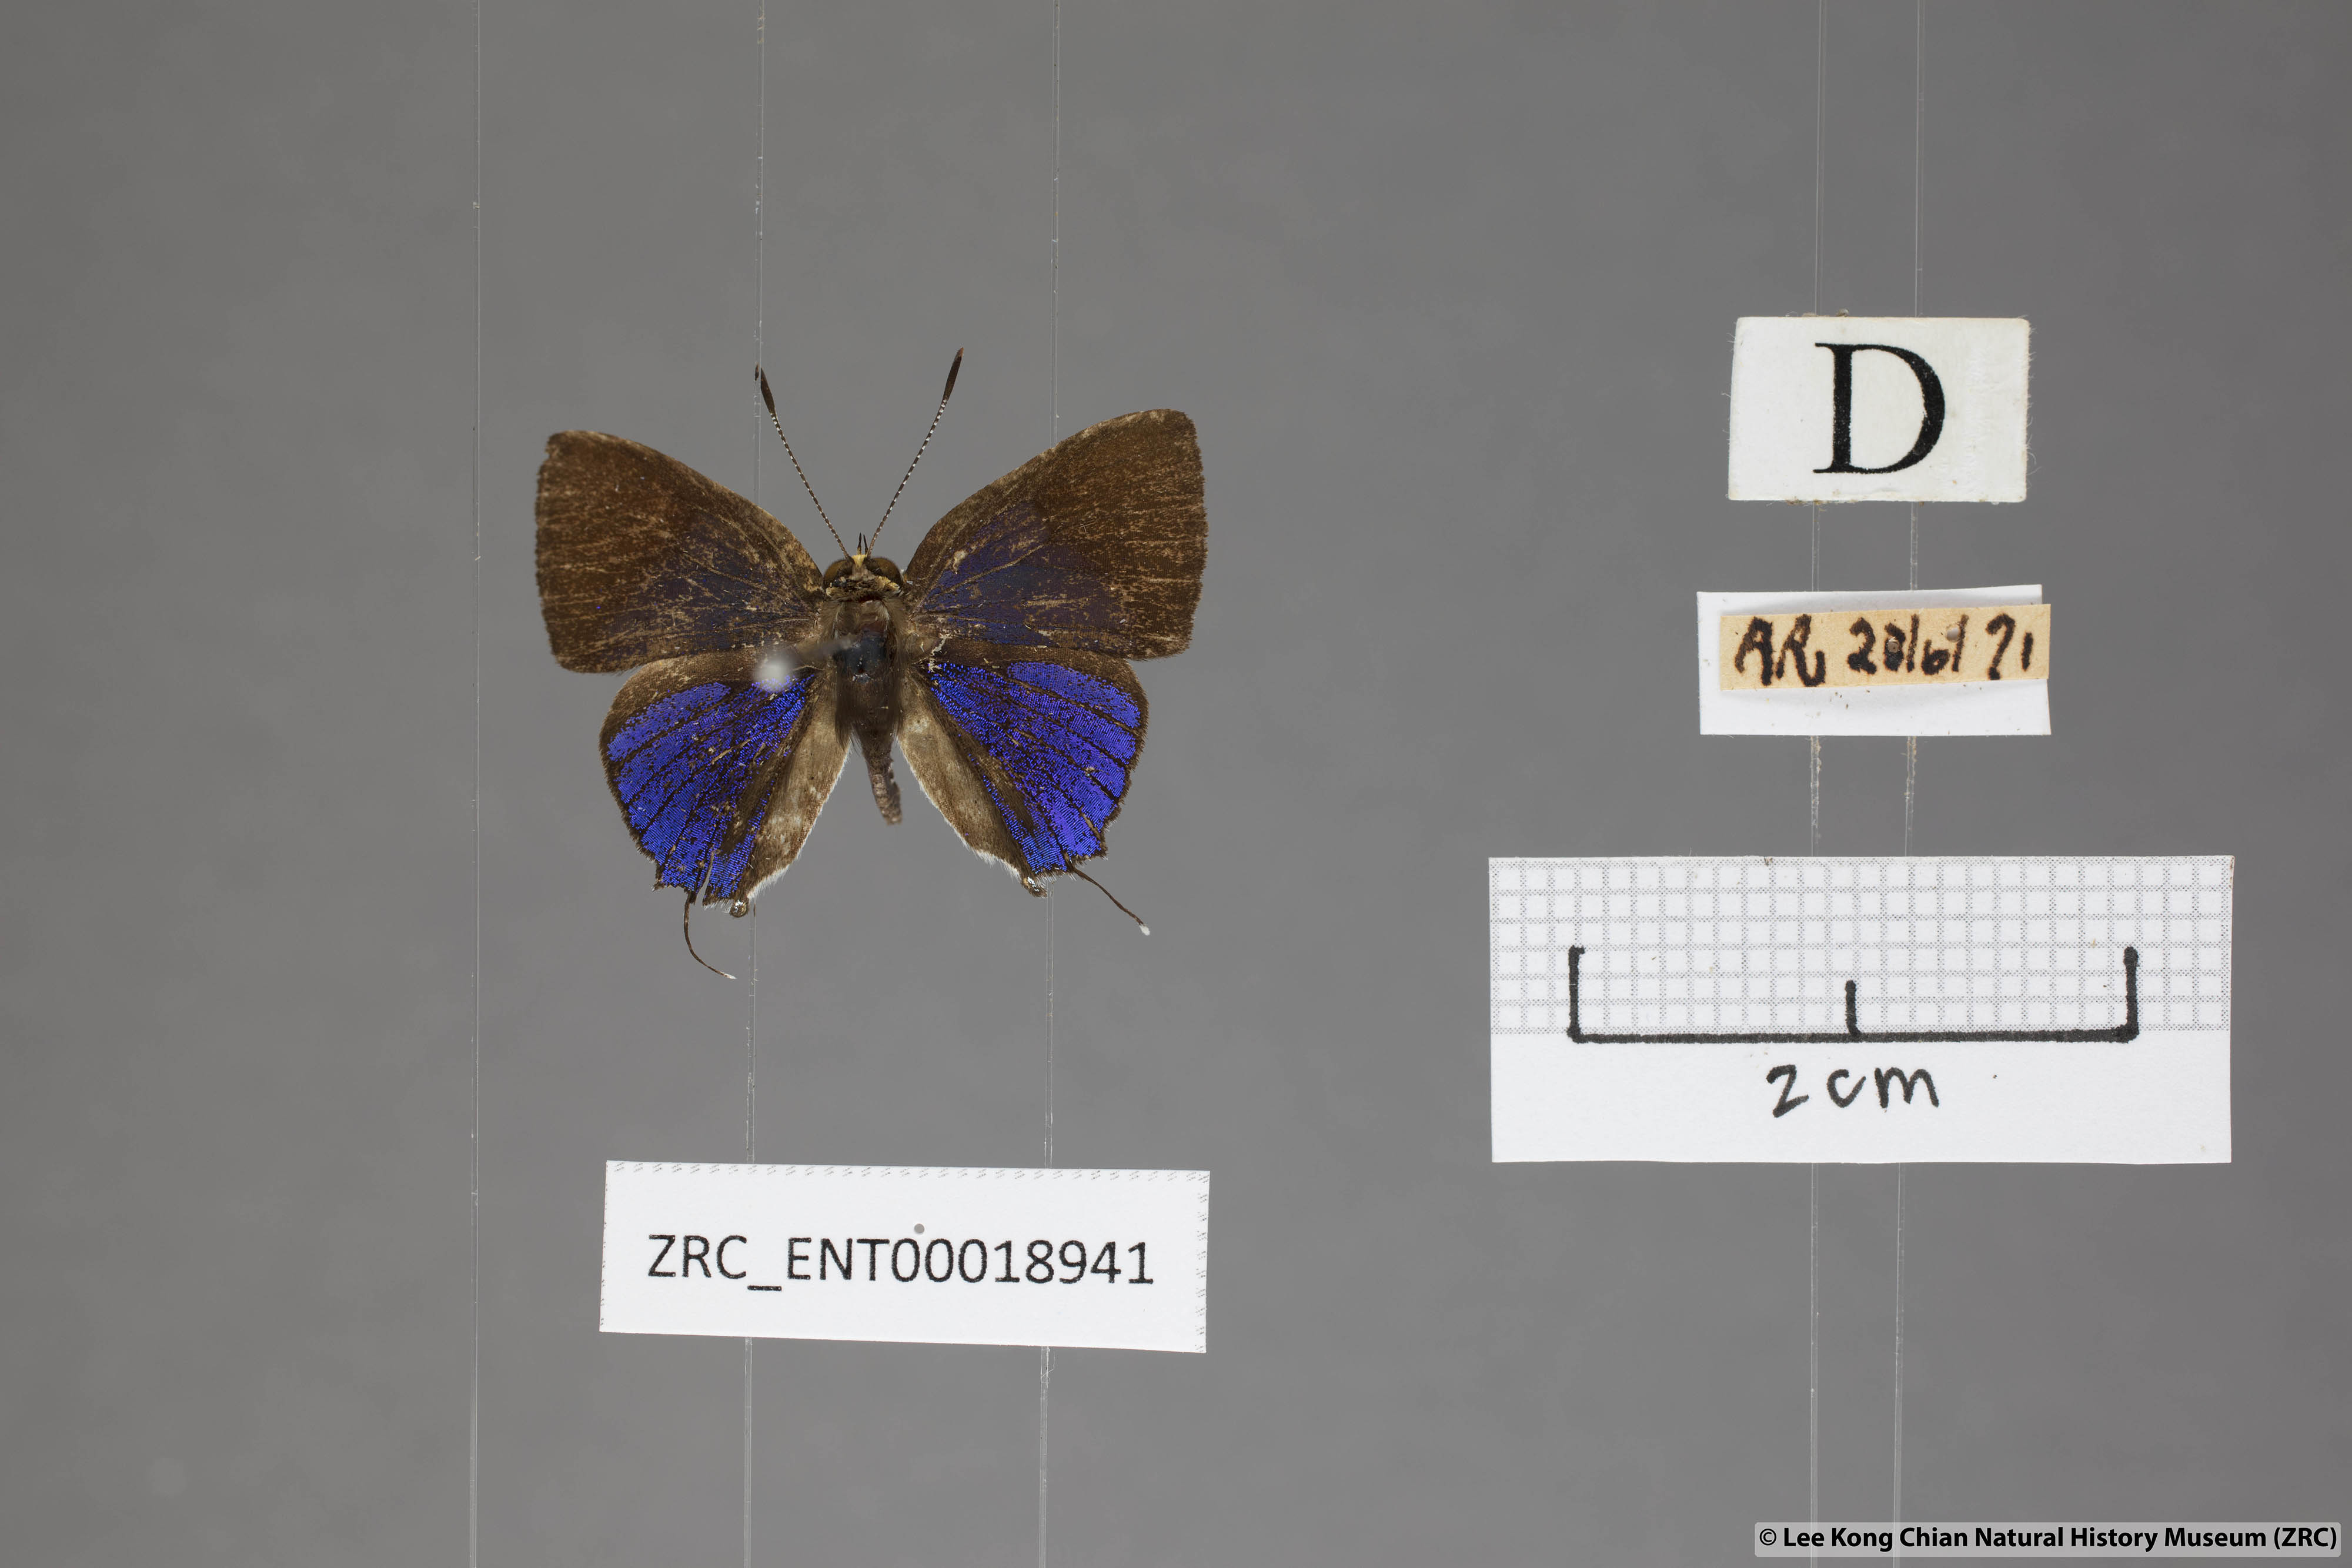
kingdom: Animalia
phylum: Arthropoda
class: Insecta
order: Lepidoptera
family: Lycaenidae
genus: Araotes
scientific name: Araotes lapithis
